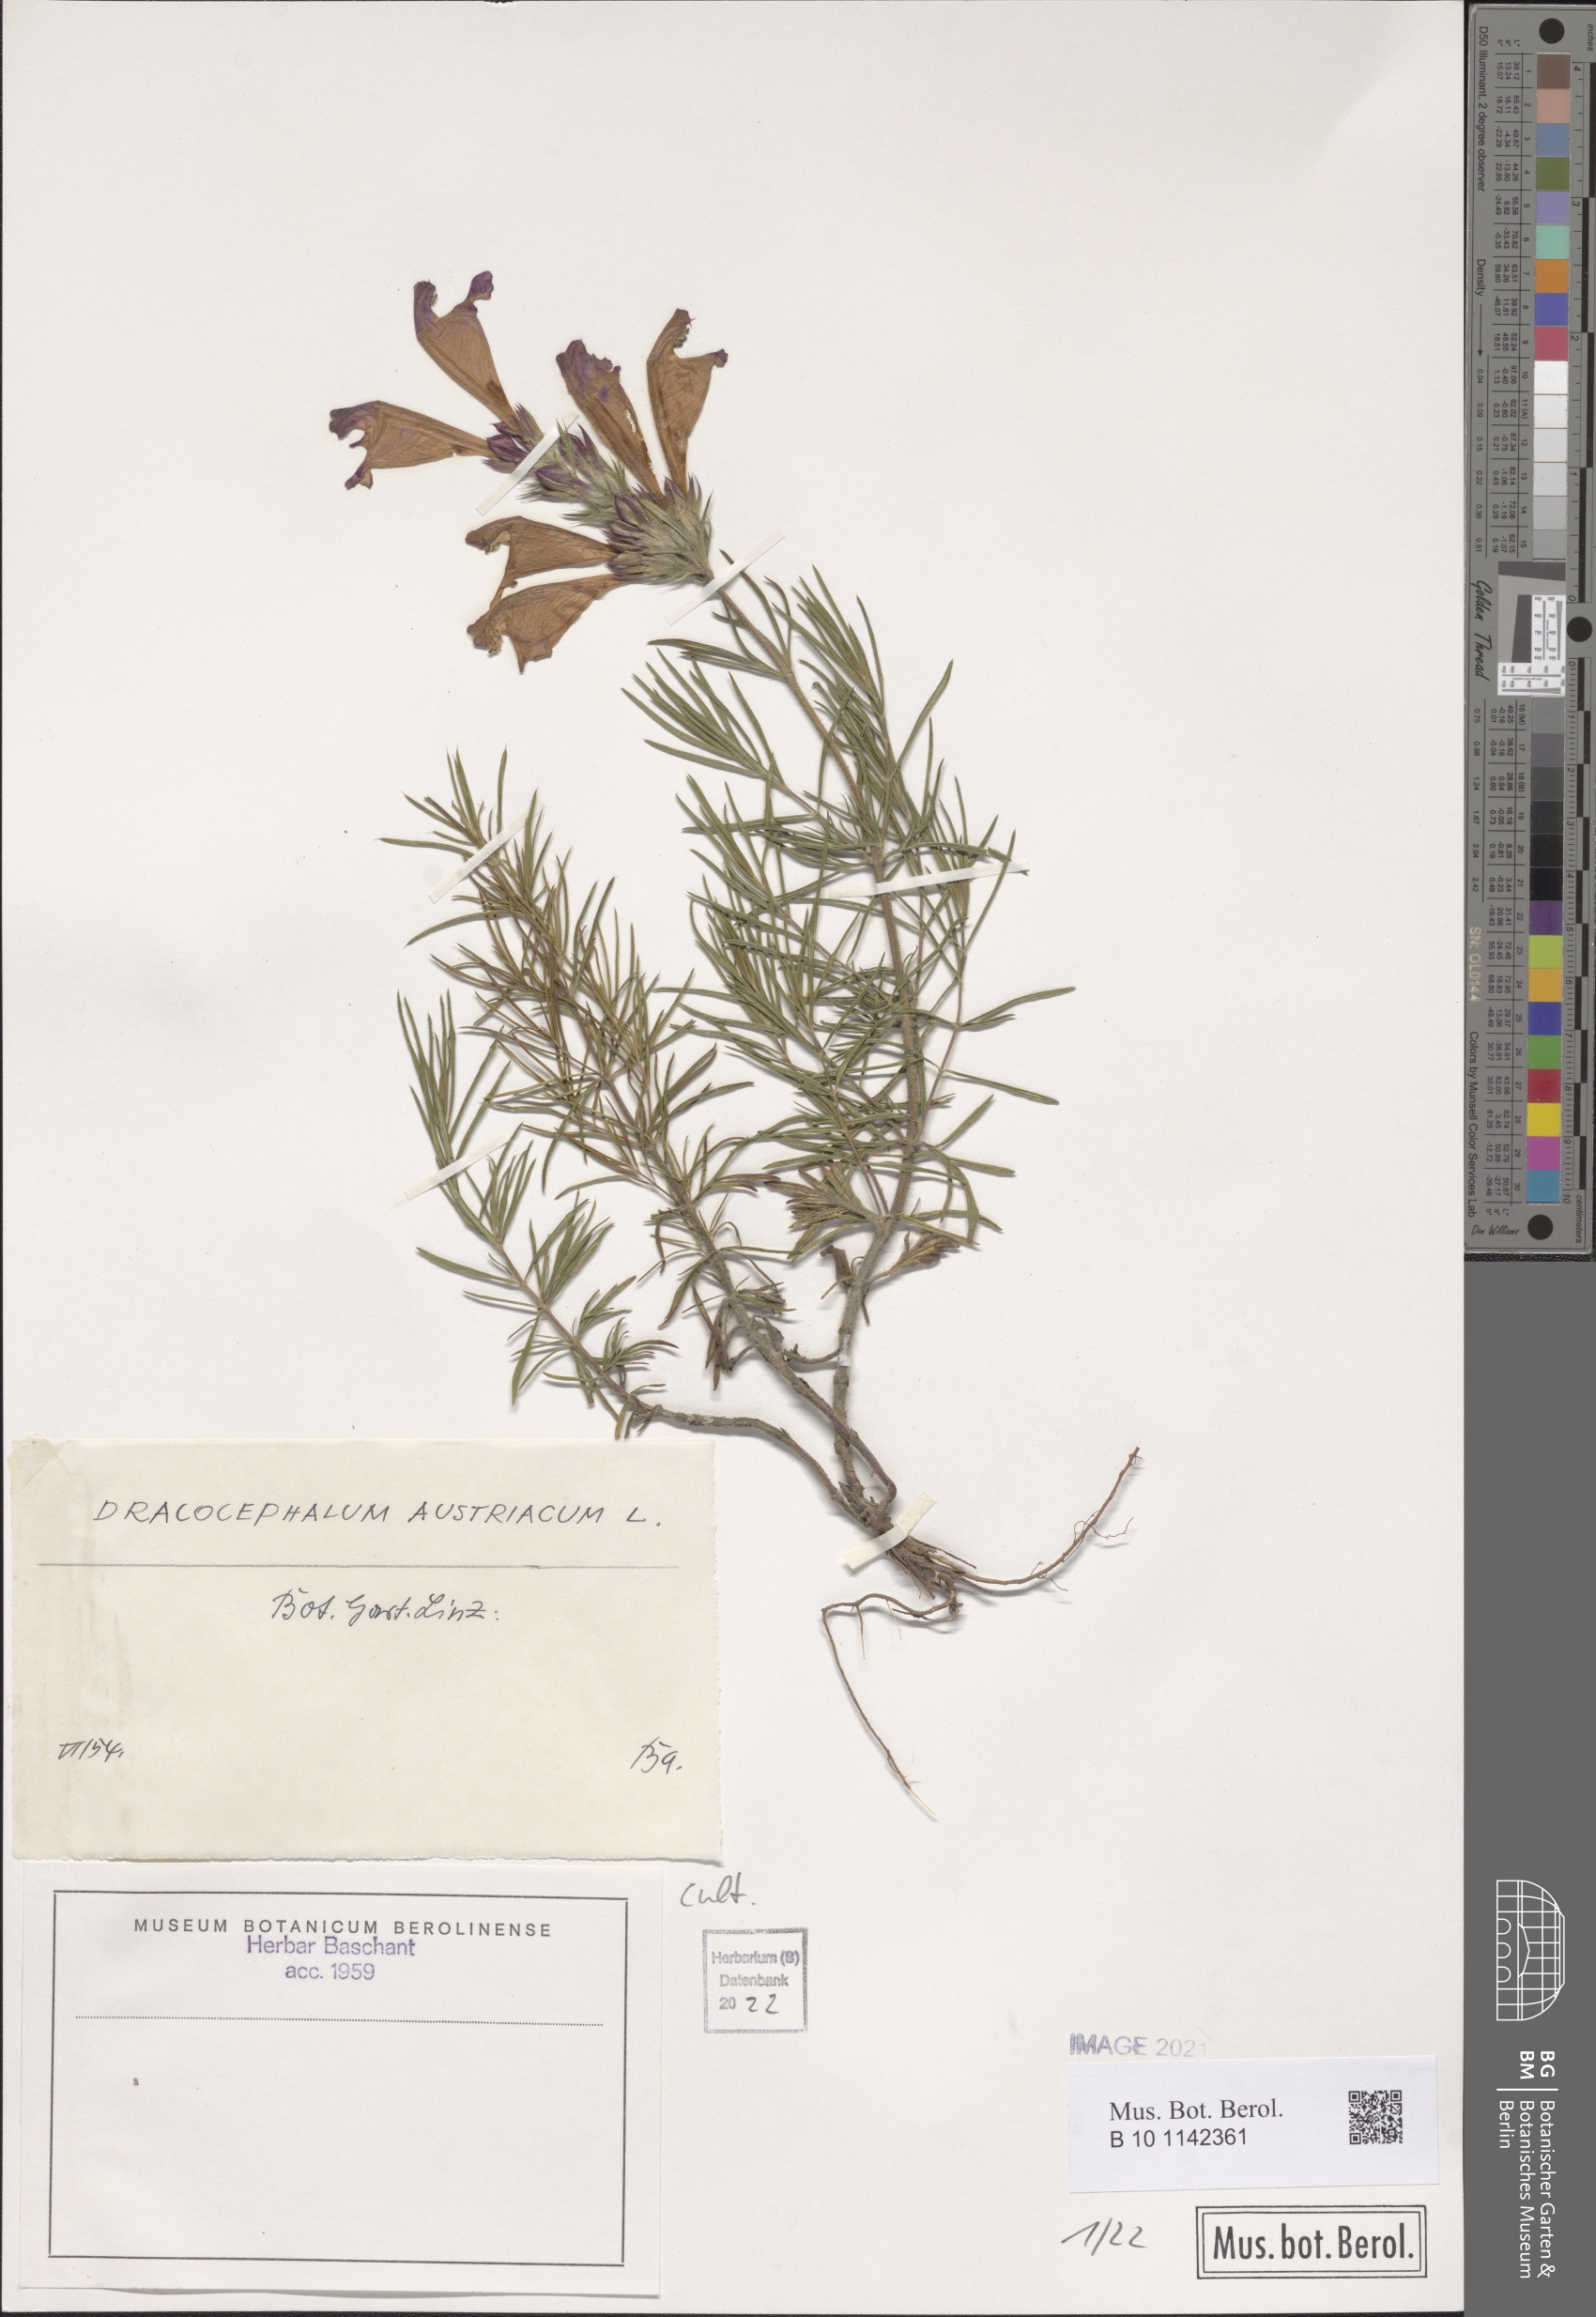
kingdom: Plantae
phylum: Tracheophyta
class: Magnoliopsida
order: Lamiales
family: Lamiaceae
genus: Dracocephalum
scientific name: Dracocephalum austriacum
